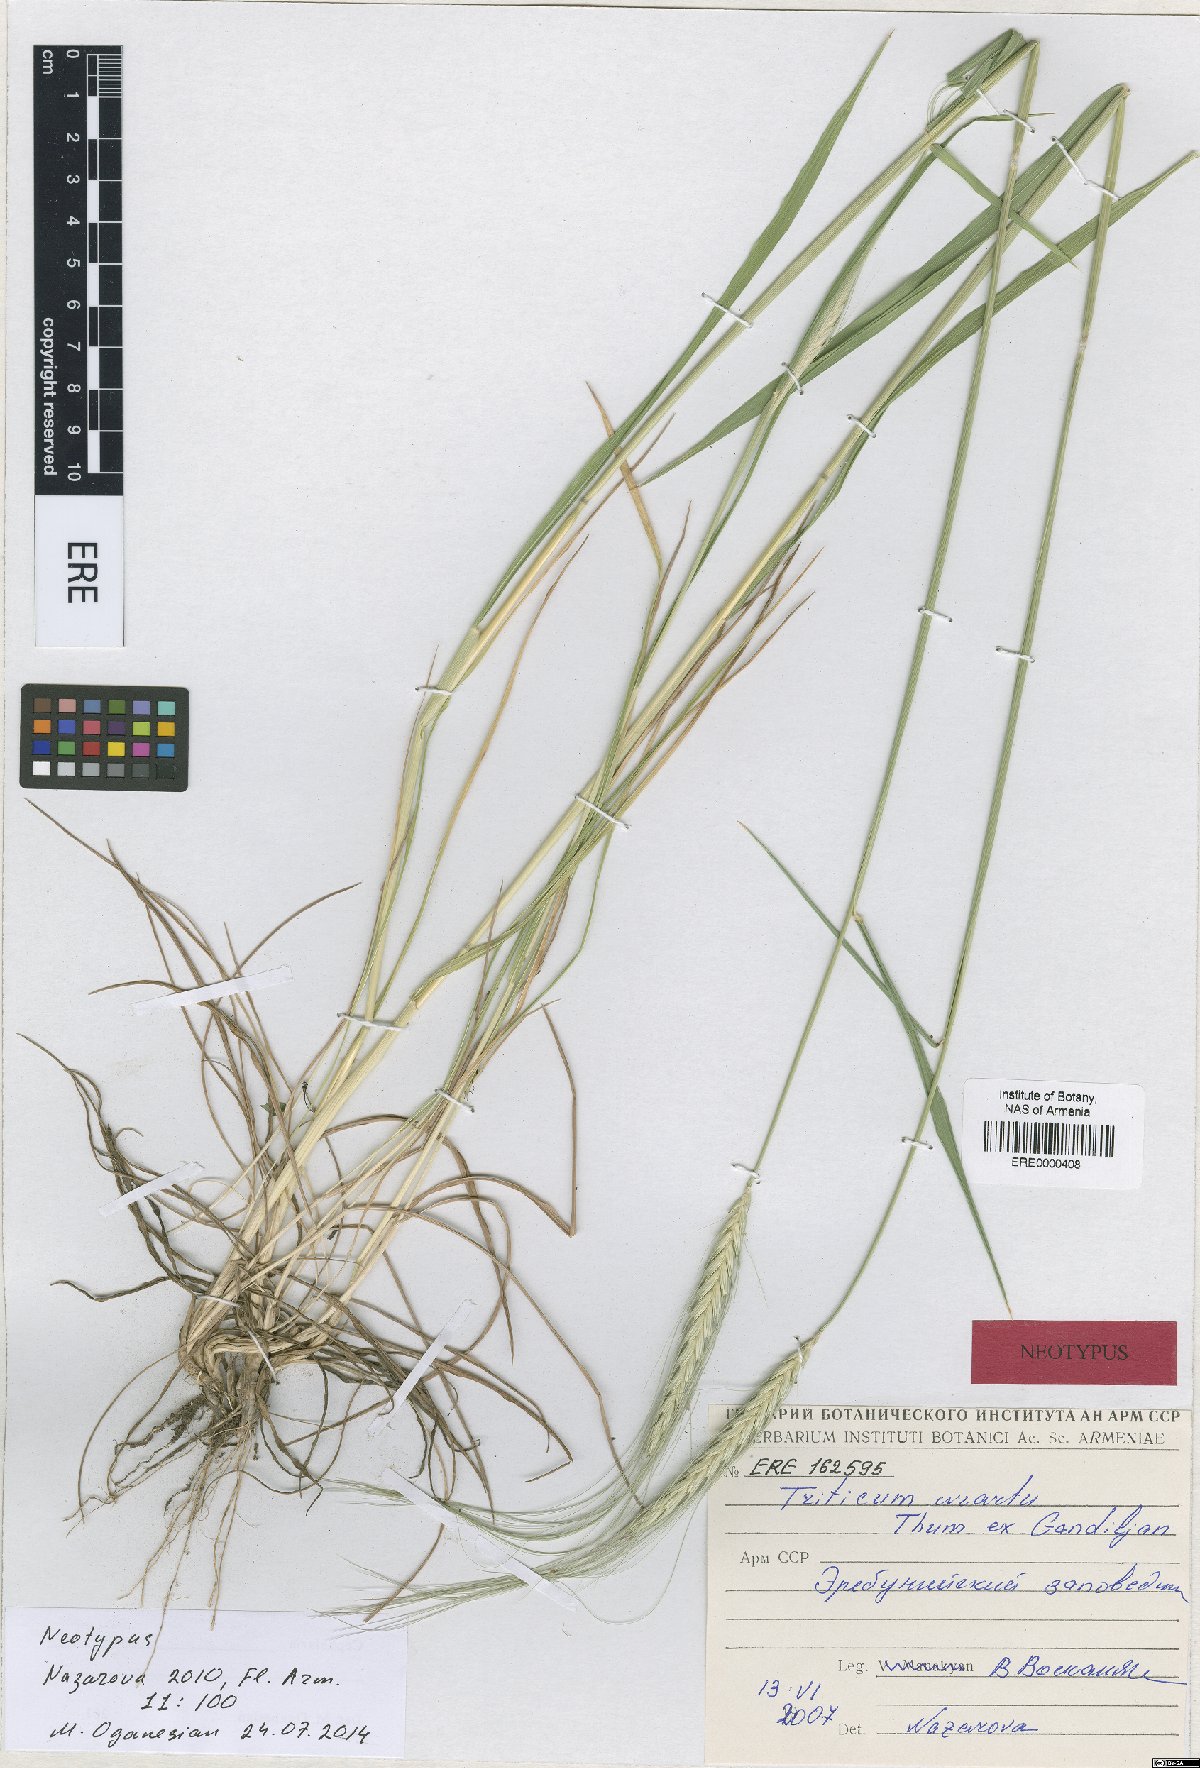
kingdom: Plantae
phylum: Tracheophyta
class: Liliopsida
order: Poales
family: Poaceae
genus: Triticum
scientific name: Triticum urartu
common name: Red wild einkorn
